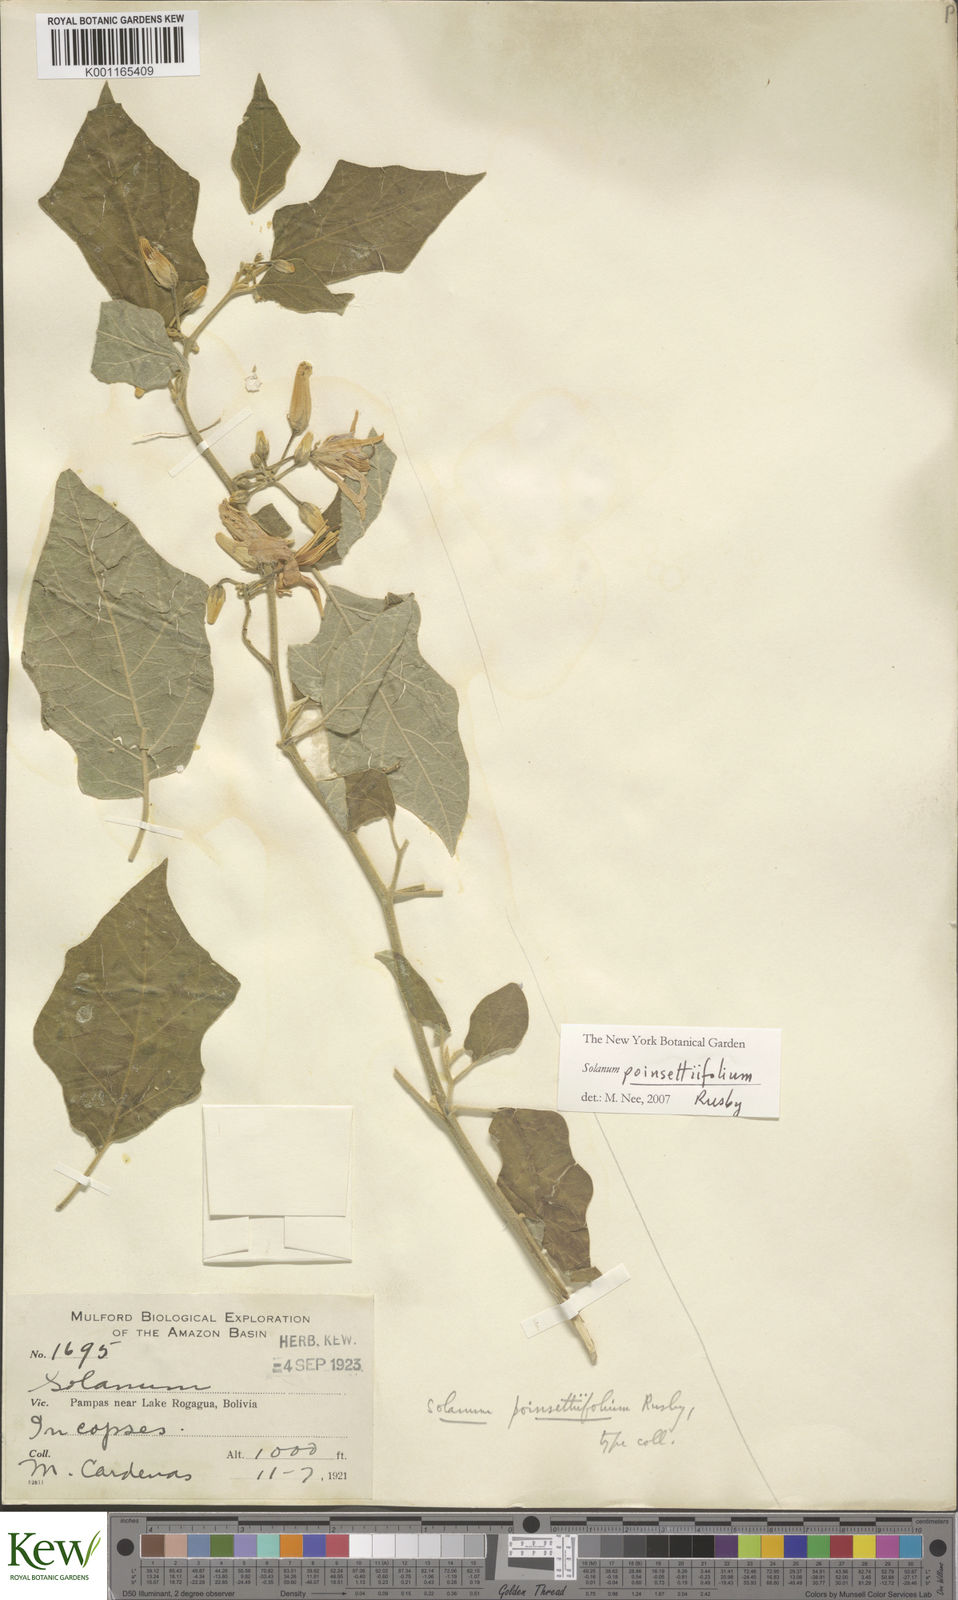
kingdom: Plantae
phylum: Tracheophyta
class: Magnoliopsida
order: Solanales
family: Solanaceae
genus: Solanum
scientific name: Solanum poinsettiifolium
